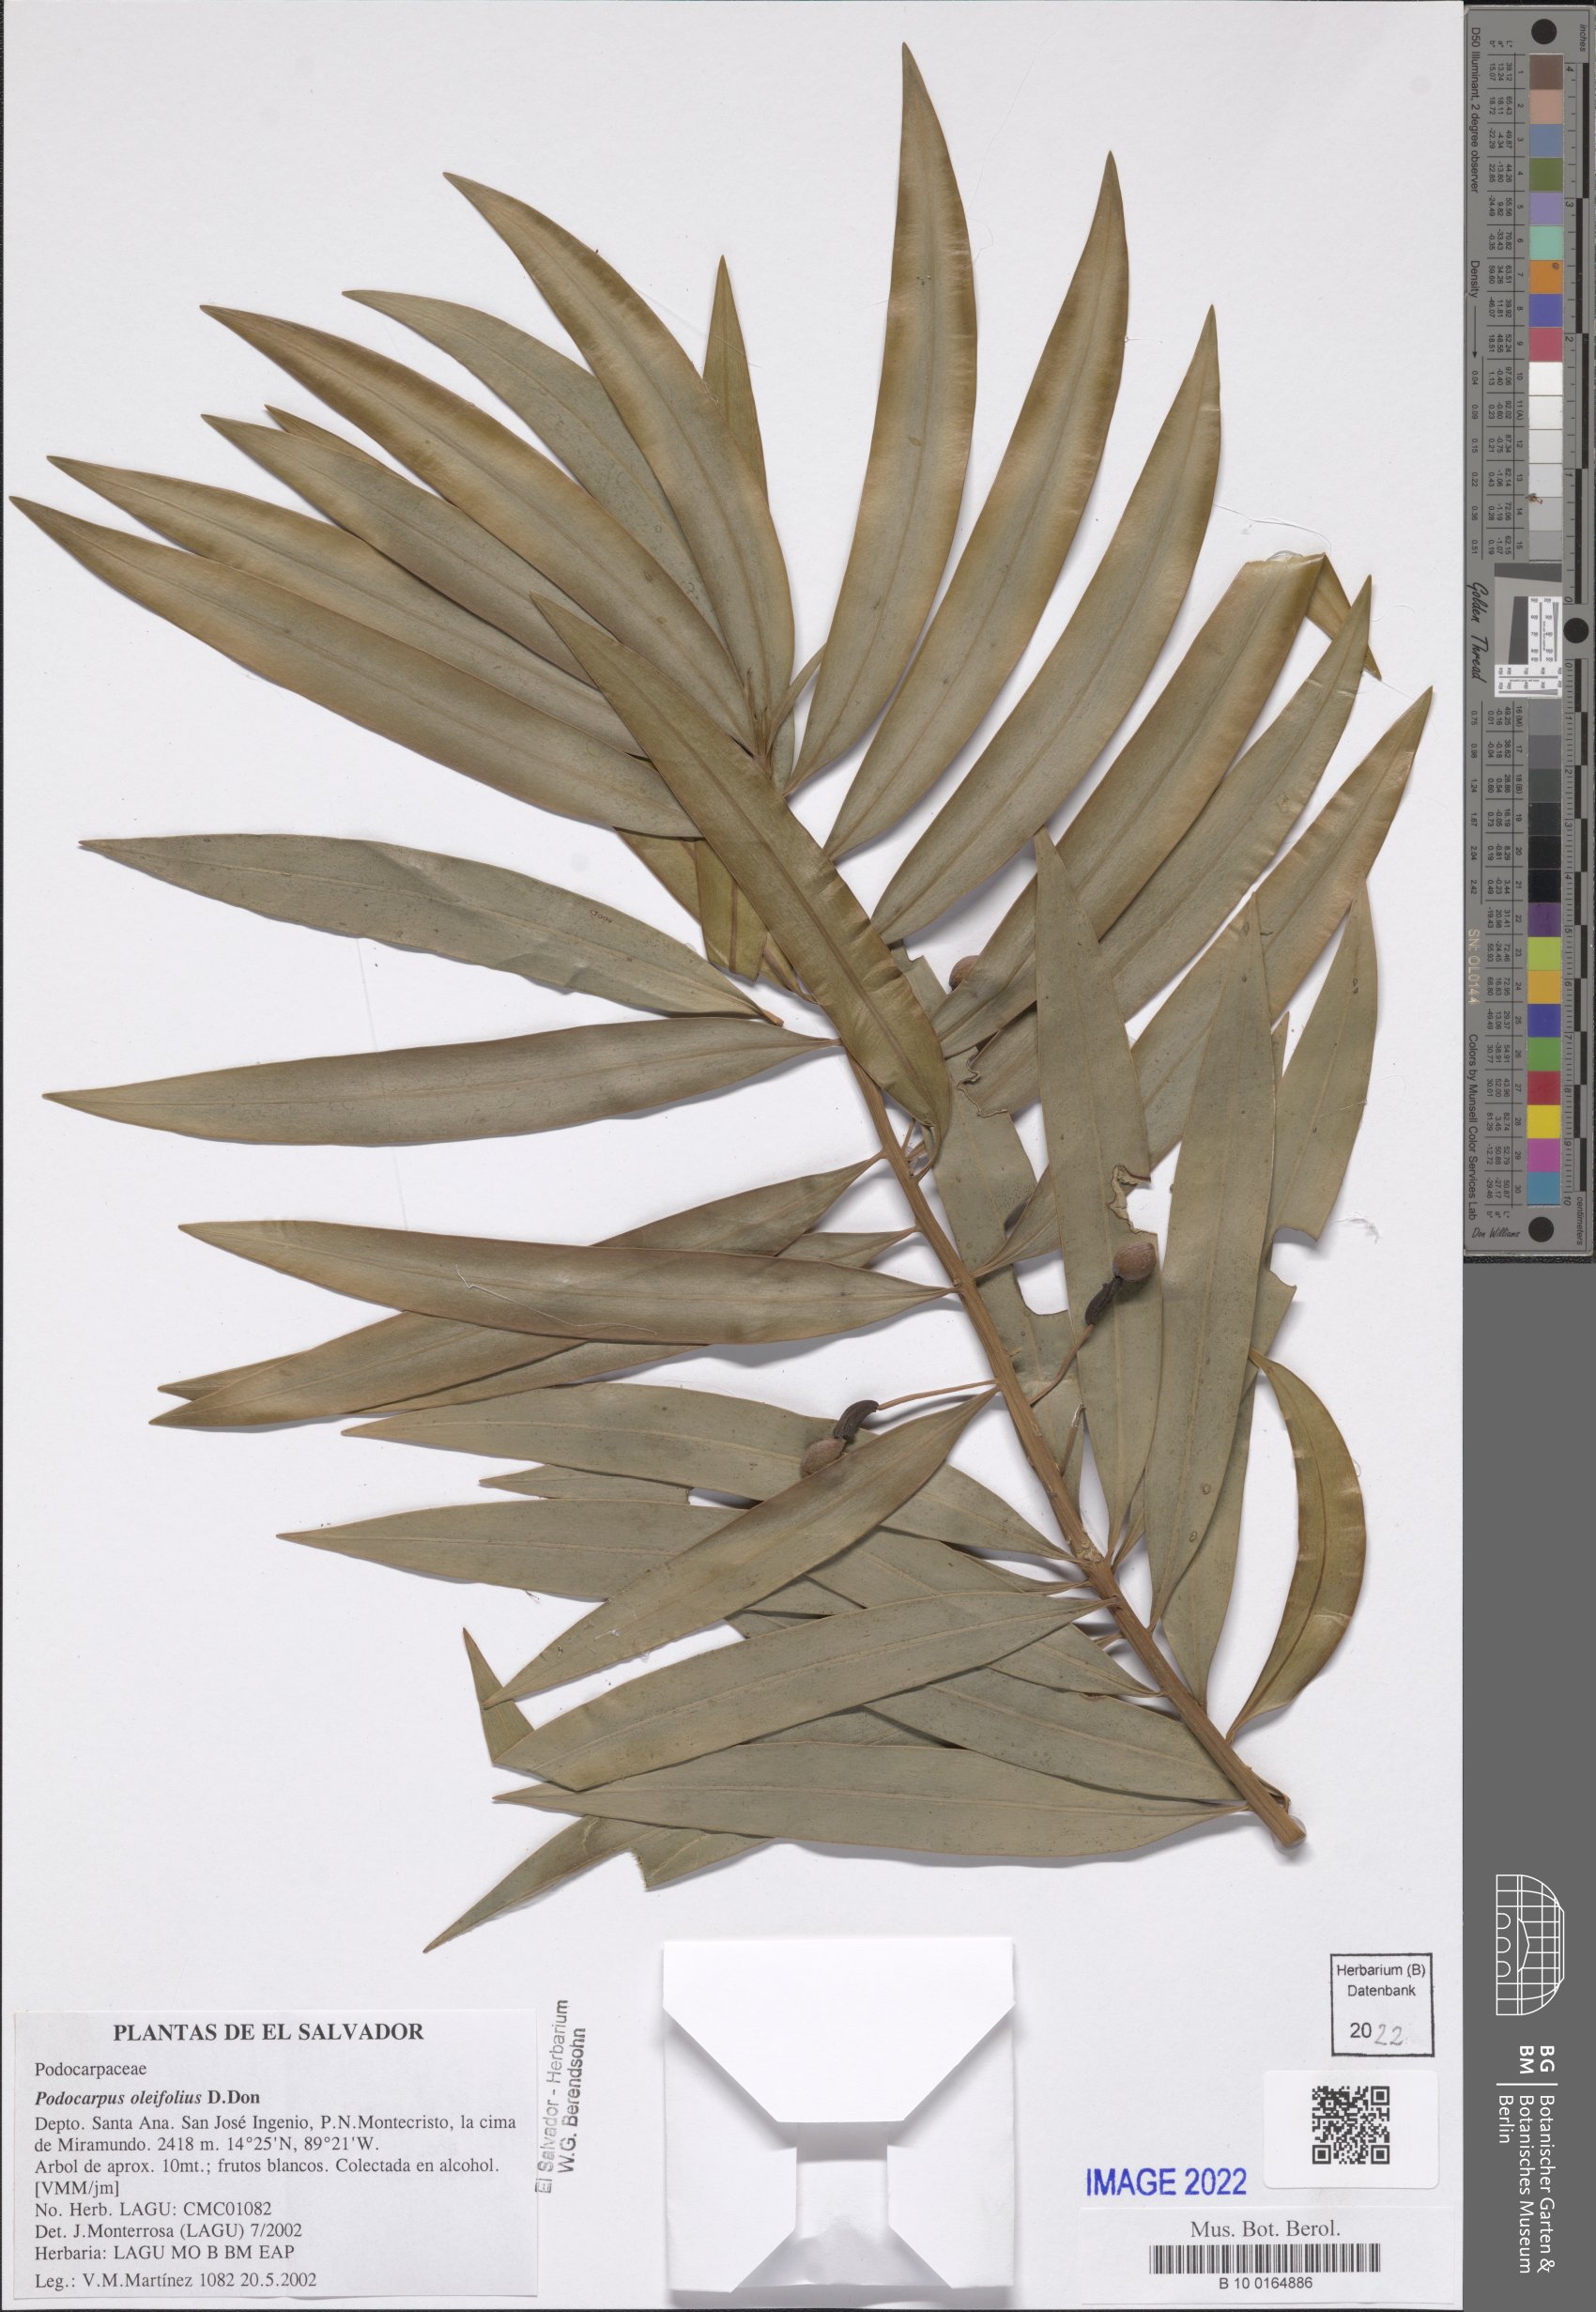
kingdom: Plantae
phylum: Tracheophyta
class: Pinopsida
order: Pinales
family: Podocarpaceae
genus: Podocarpus
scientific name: Podocarpus oleifolius
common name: Olive-leaf podoberry
